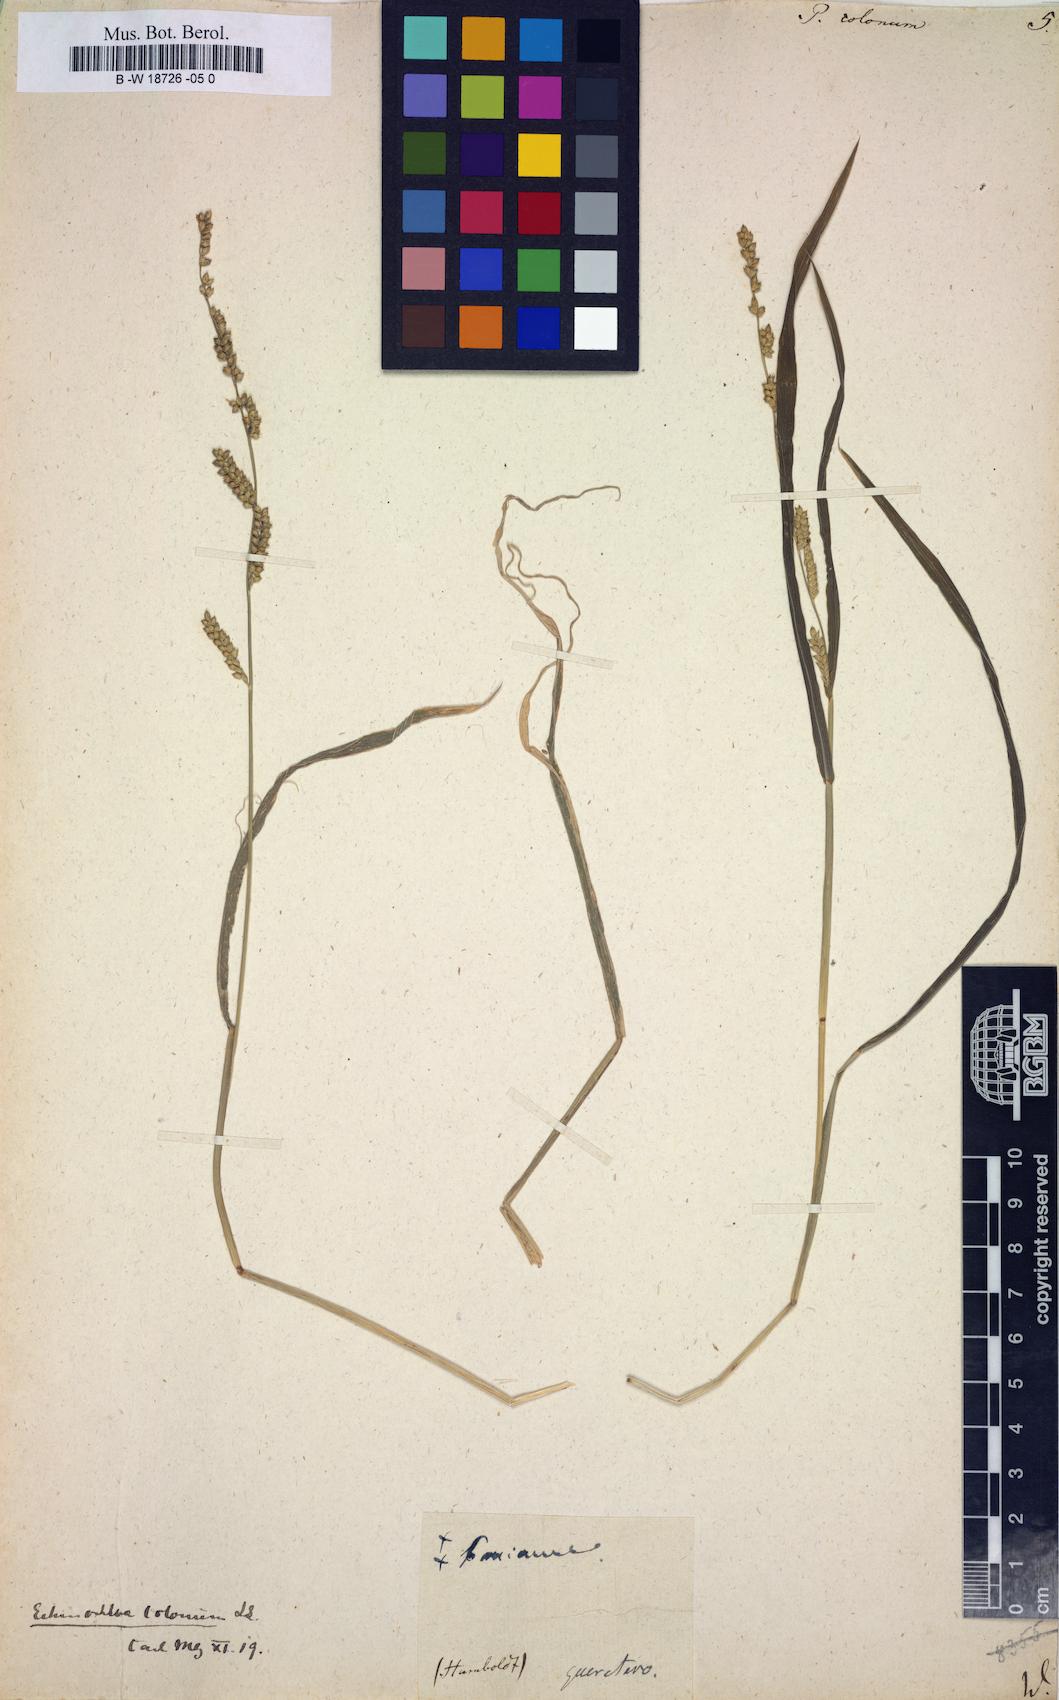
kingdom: Plantae
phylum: Tracheophyta
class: Liliopsida
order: Poales
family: Poaceae
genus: Echinochloa
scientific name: Echinochloa colonum
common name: Jungle rice
